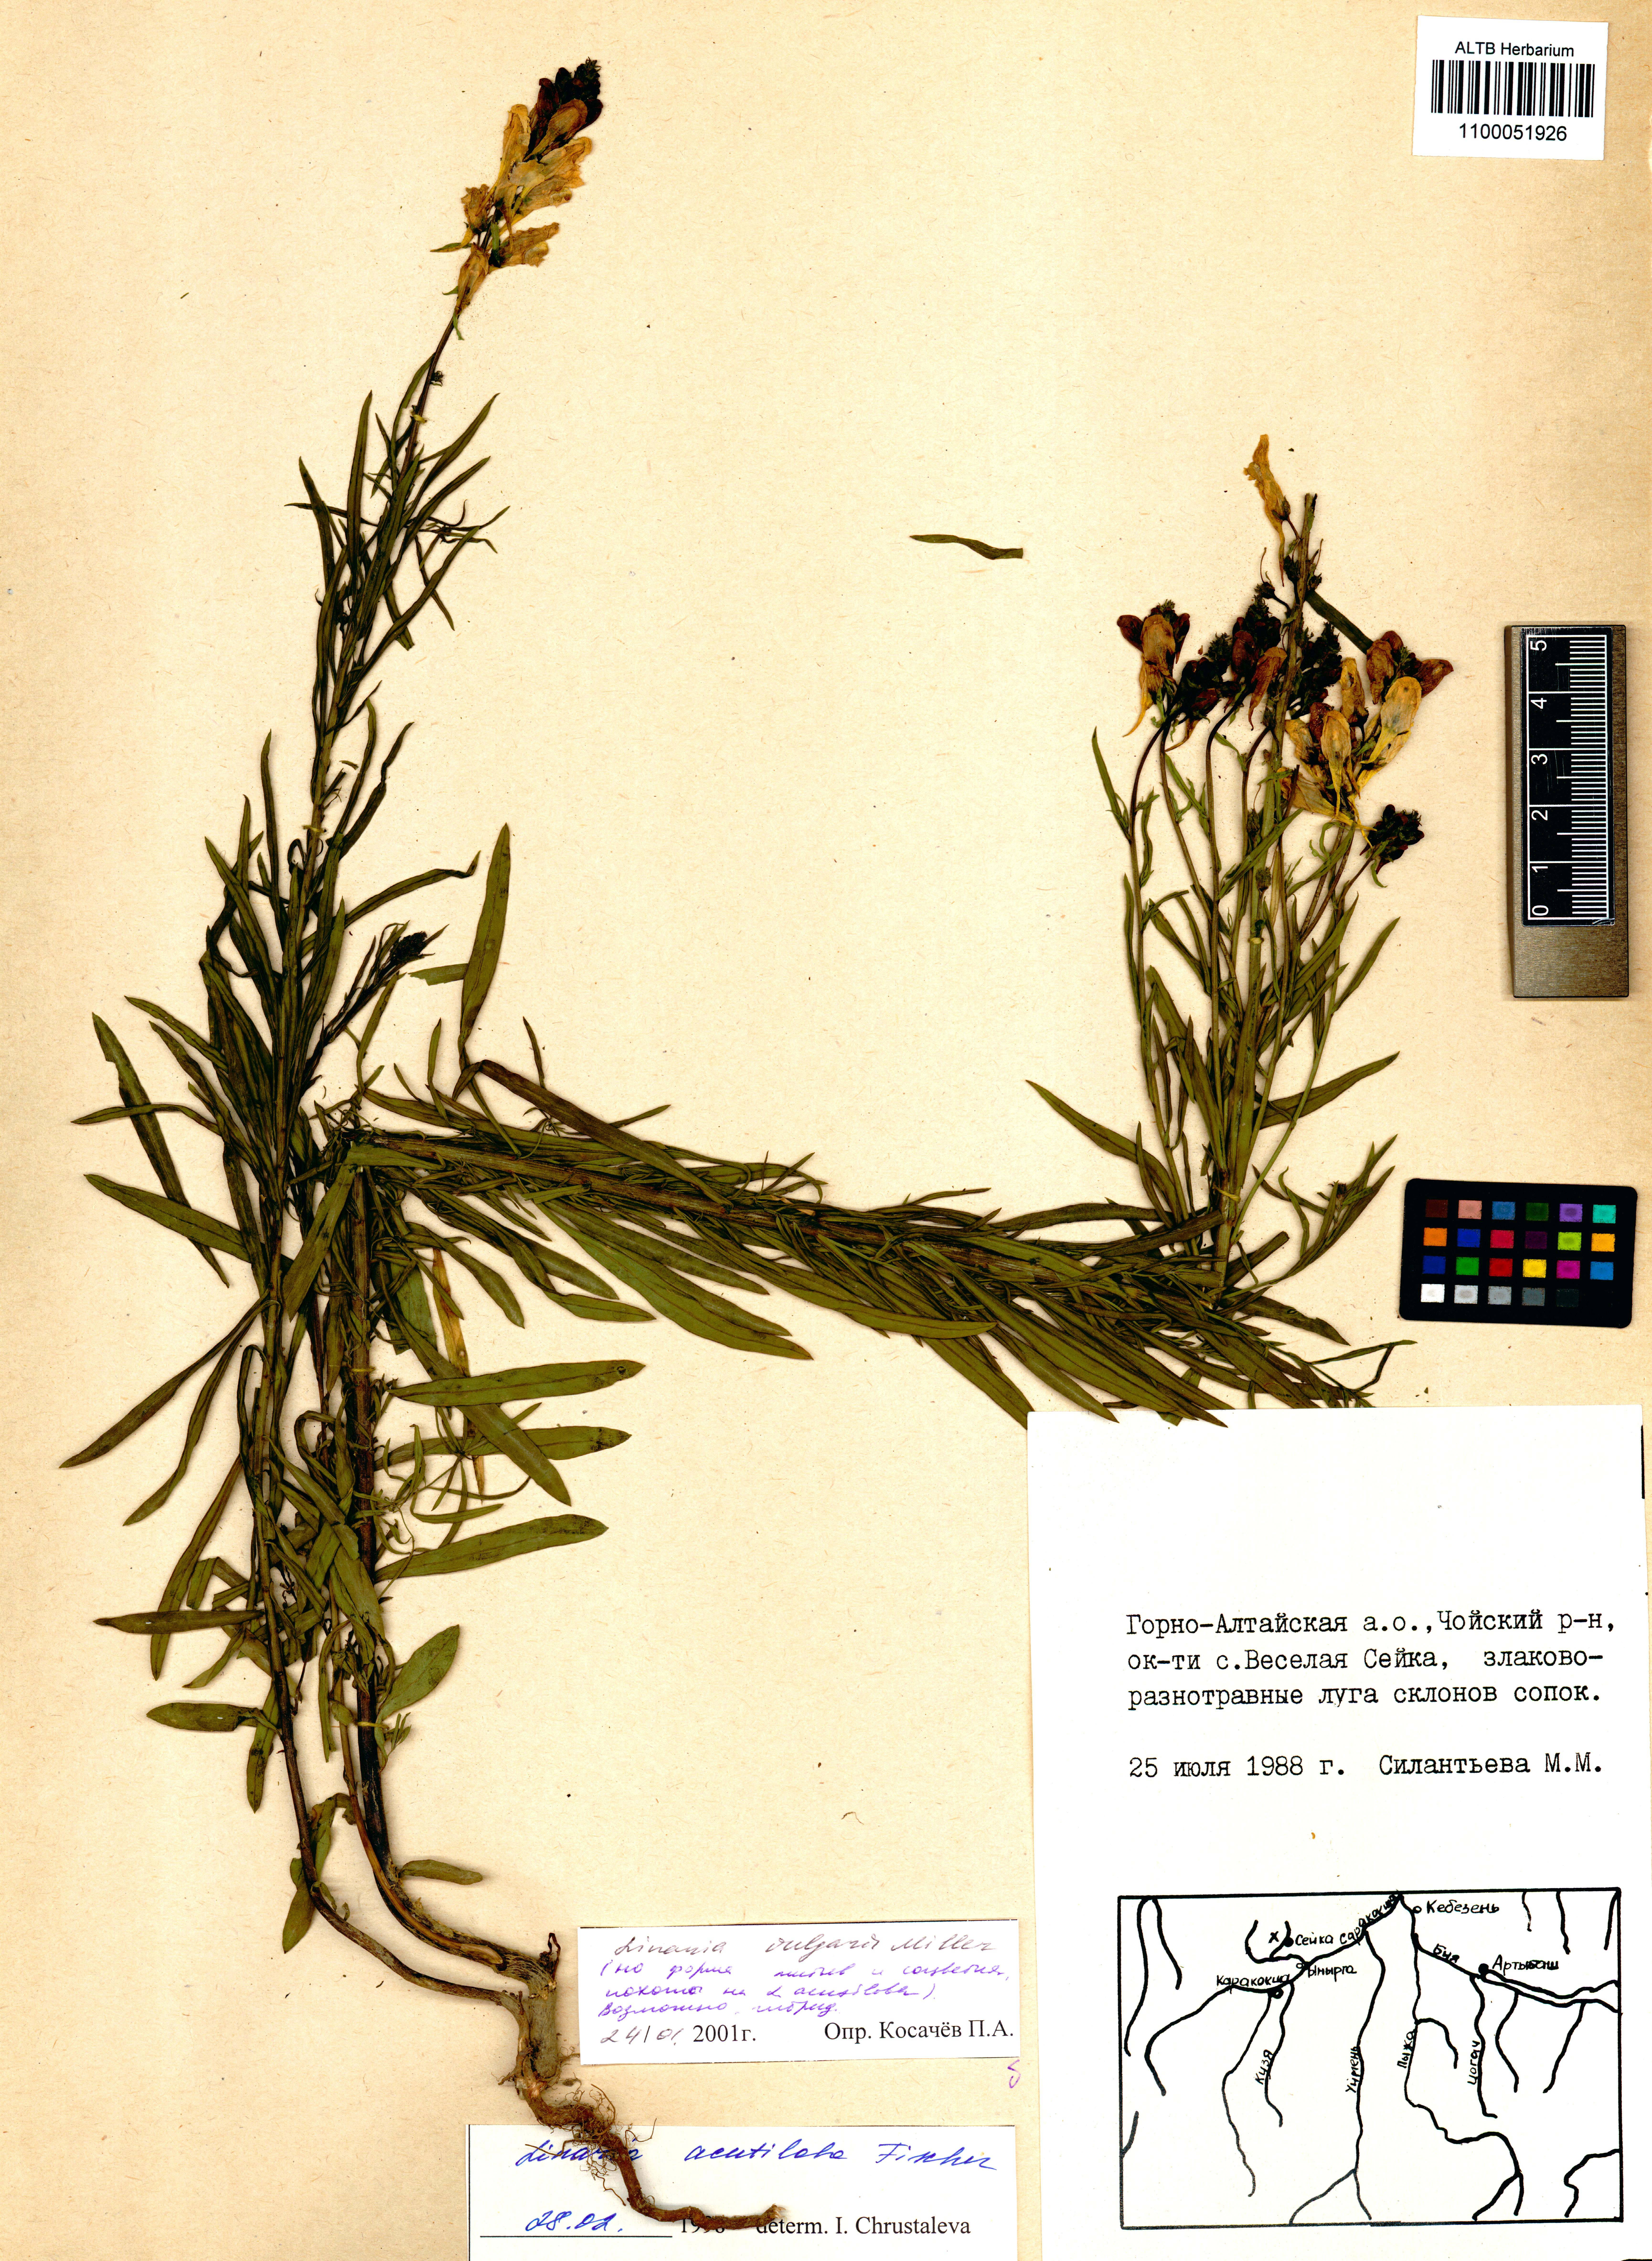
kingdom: Plantae
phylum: Tracheophyta
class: Magnoliopsida
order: Lamiales
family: Plantaginaceae
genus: Linaria
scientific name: Linaria vulgaris
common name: Butter and eggs
